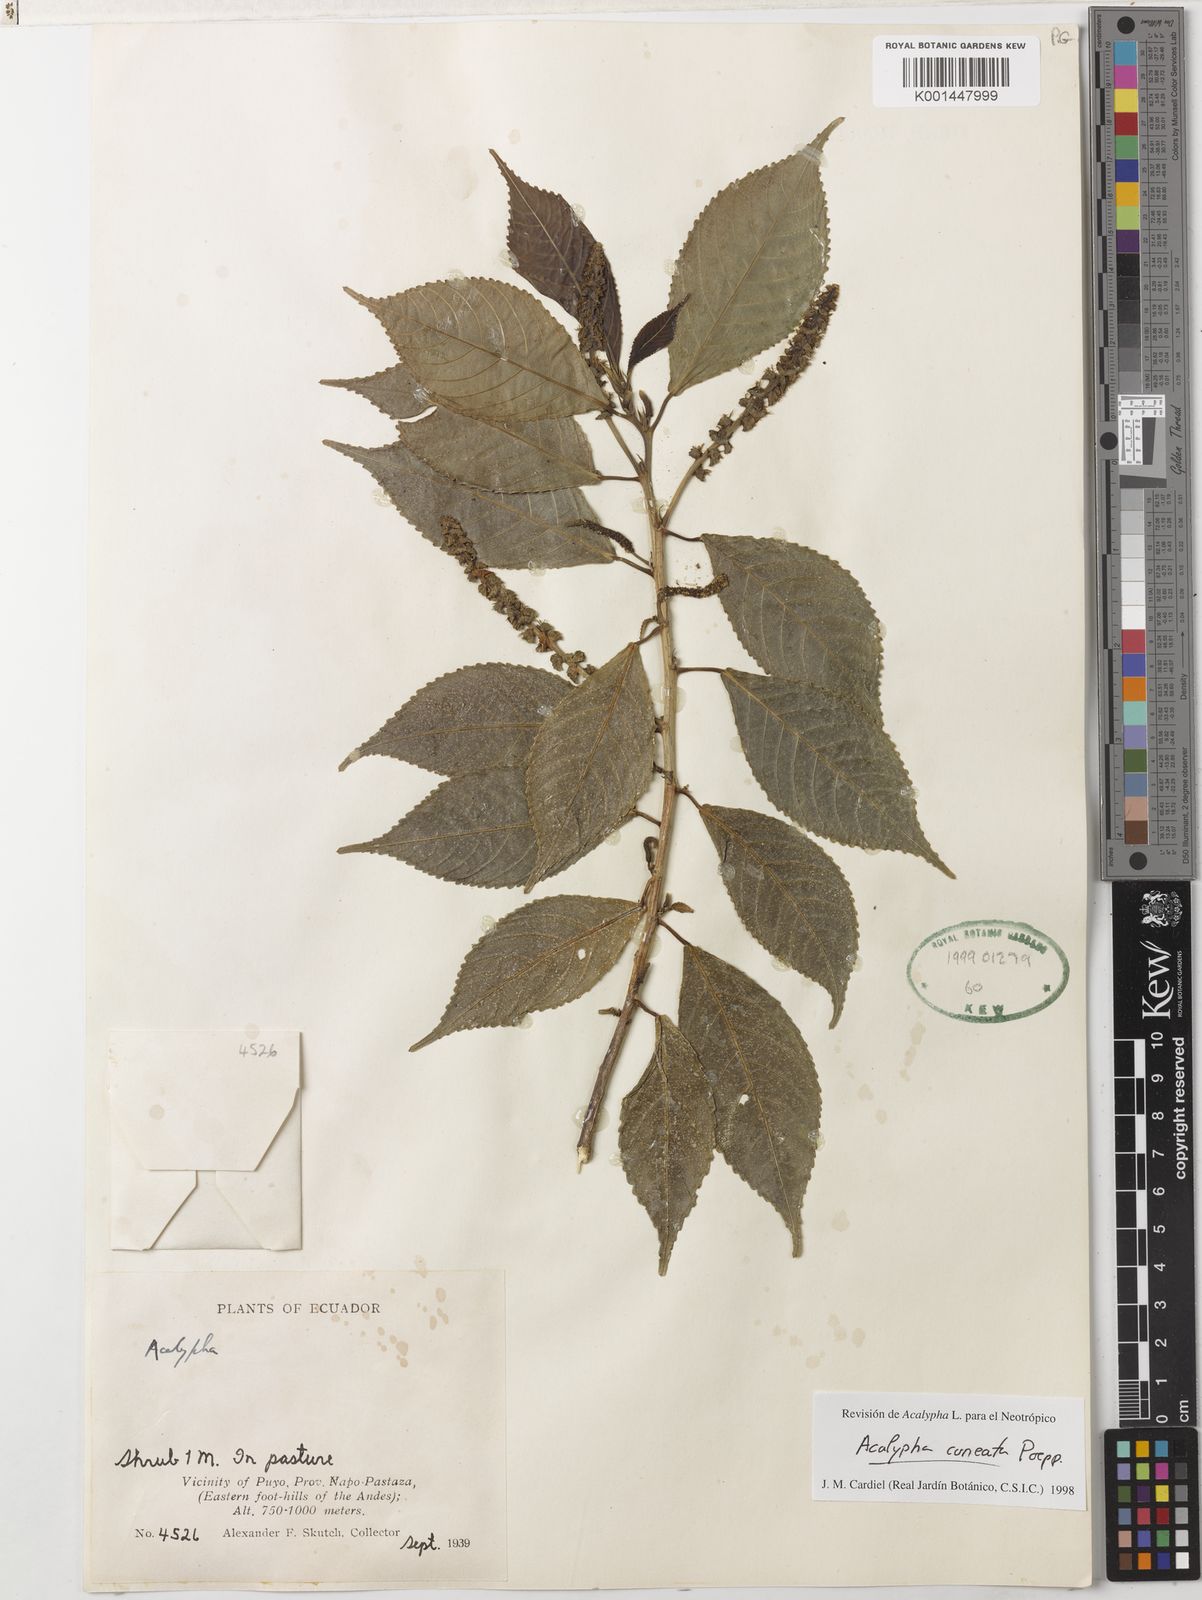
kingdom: Plantae
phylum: Tracheophyta
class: Magnoliopsida
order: Malpighiales
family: Euphorbiaceae
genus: Acalypha
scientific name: Acalypha cuneata
